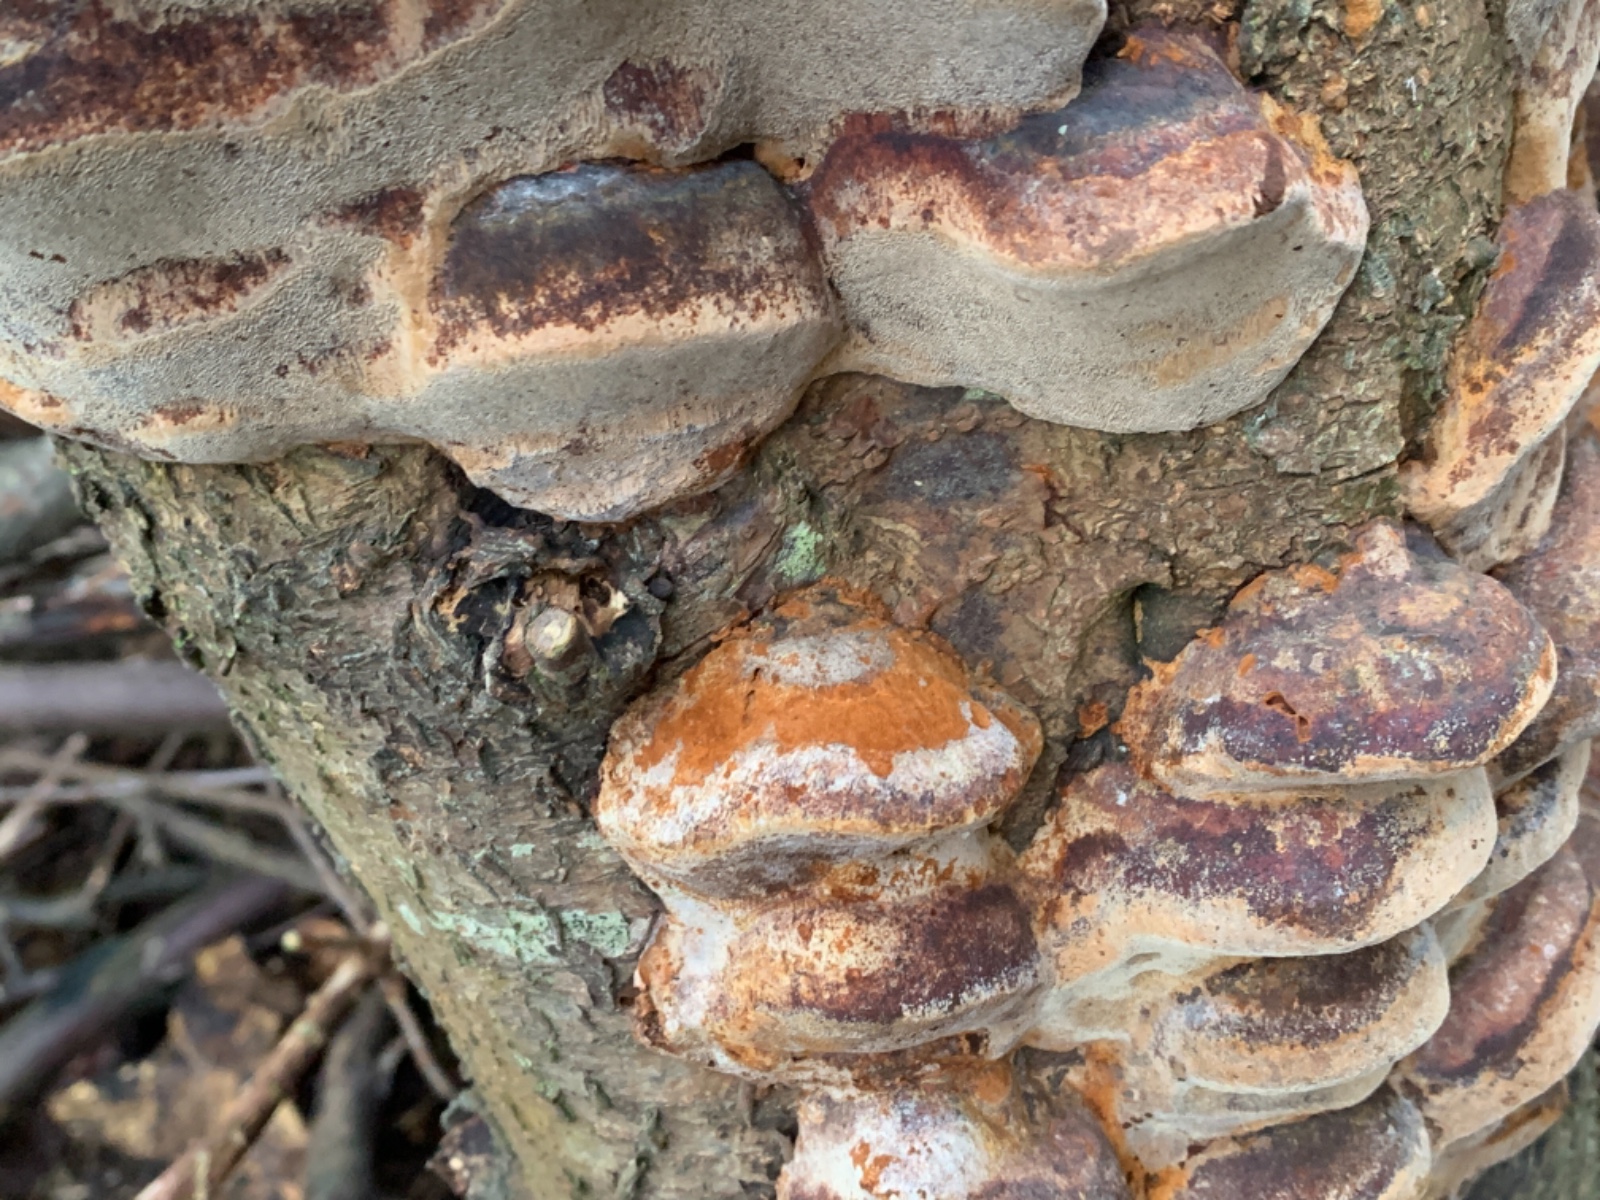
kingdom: Fungi
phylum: Basidiomycota
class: Agaricomycetes
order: Hymenochaetales
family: Hymenochaetaceae
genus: Phellinus
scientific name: Phellinus pomaceus
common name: blomme-ildporesvamp
